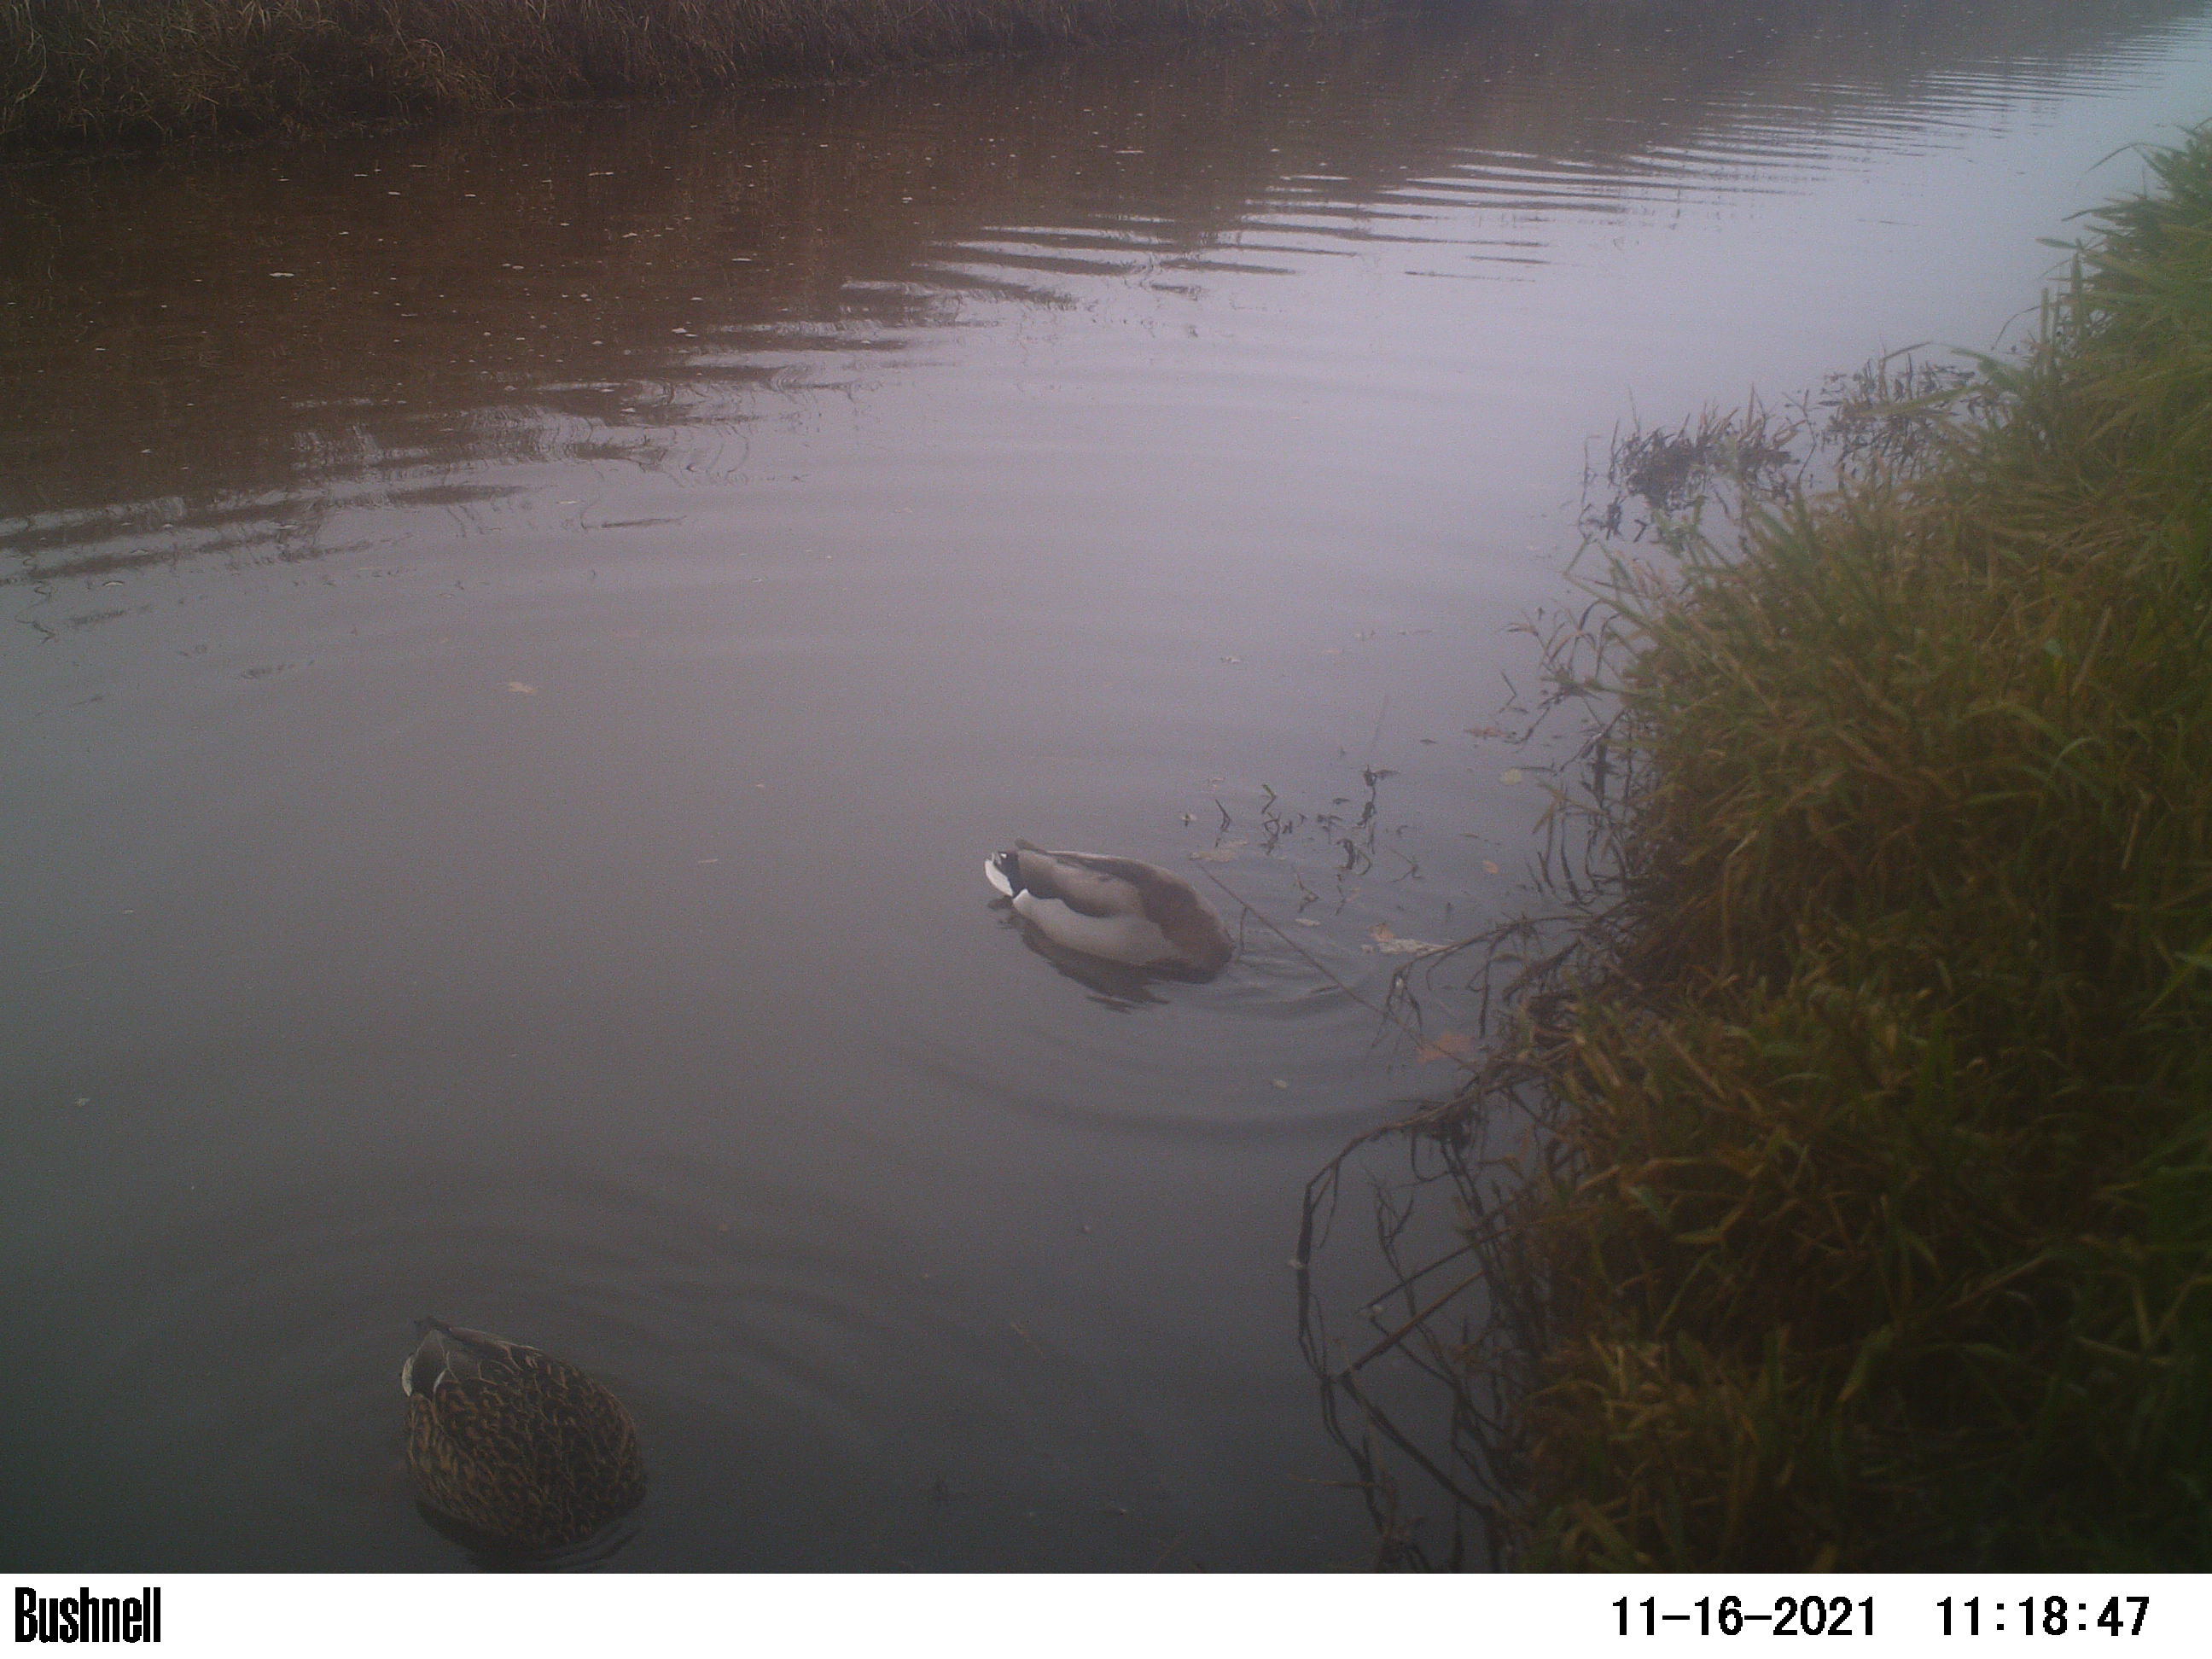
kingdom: Animalia
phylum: Chordata
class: Aves
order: Anseriformes
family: Anatidae
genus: Anas
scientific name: Anas
